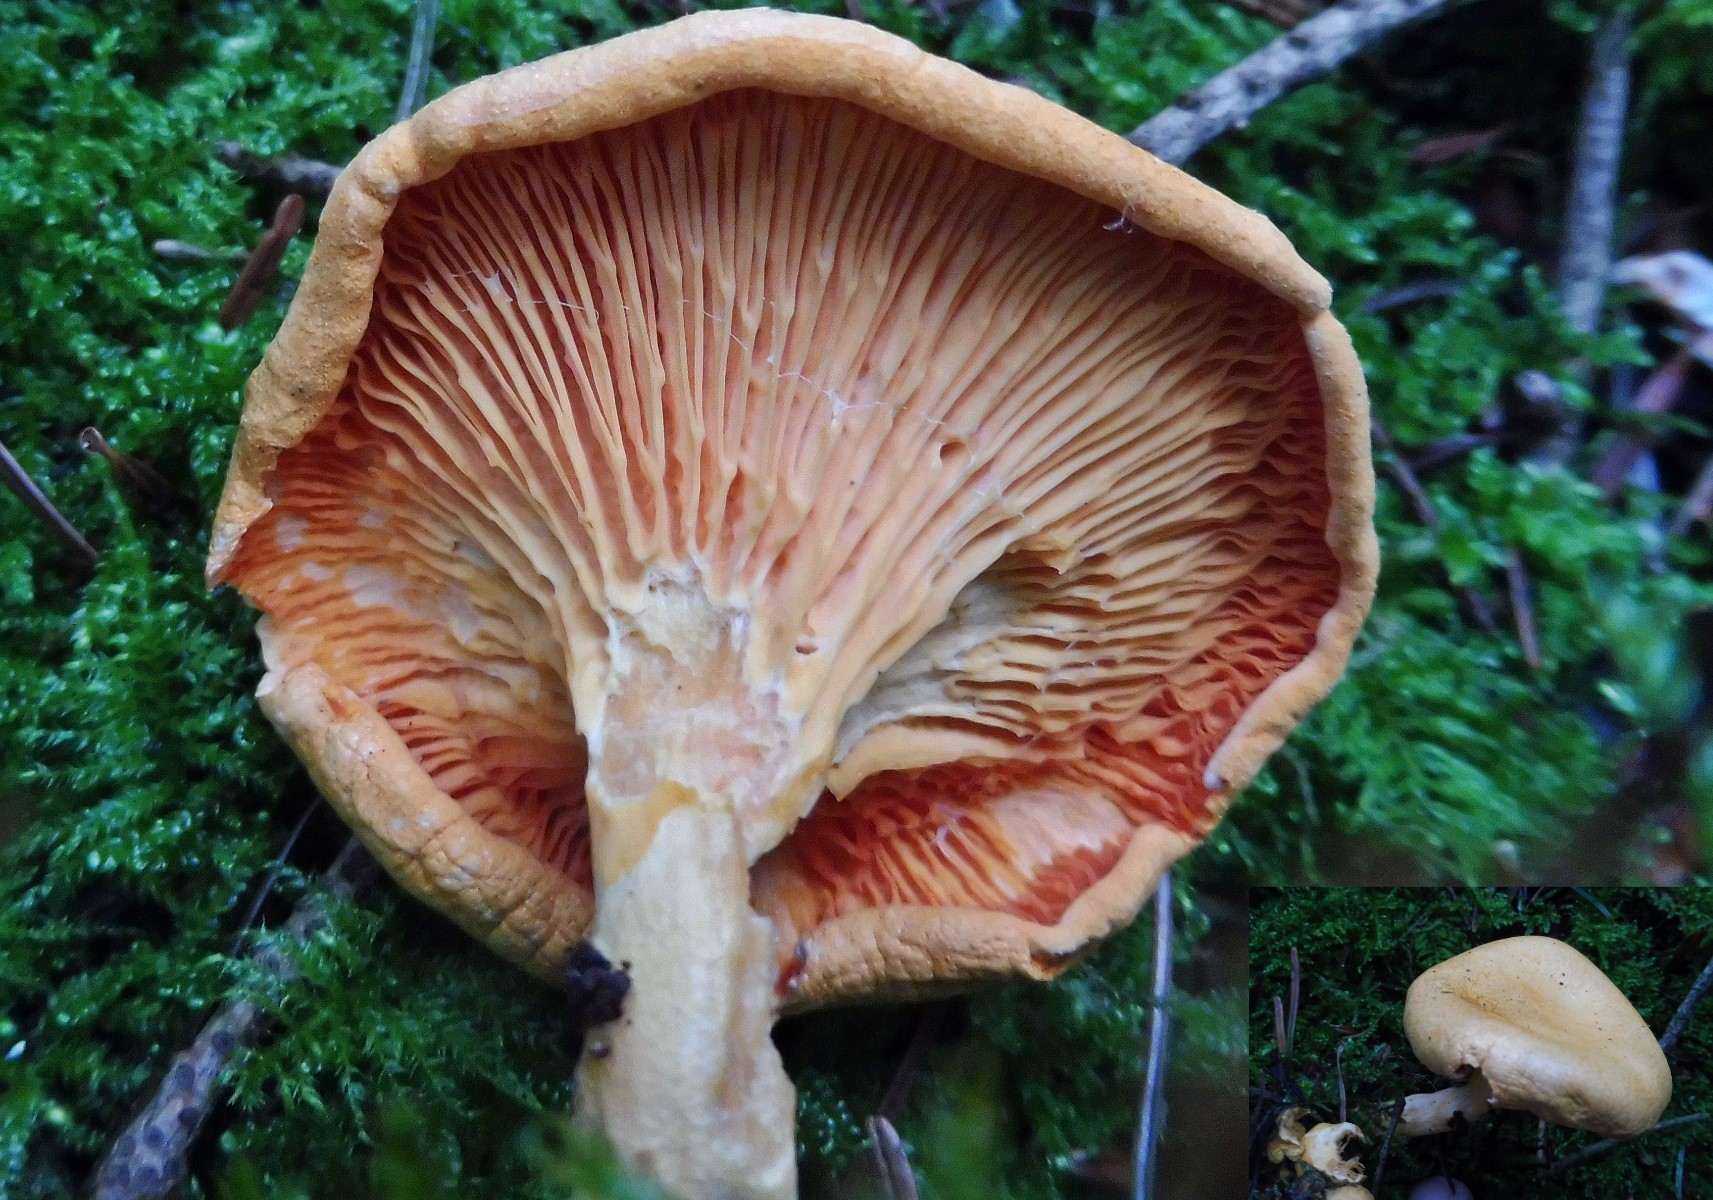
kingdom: Fungi
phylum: Basidiomycota
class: Agaricomycetes
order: Boletales
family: Hygrophoropsidaceae
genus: Hygrophoropsis
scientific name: Hygrophoropsis aurantiaca
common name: almindelig orangekantarel
